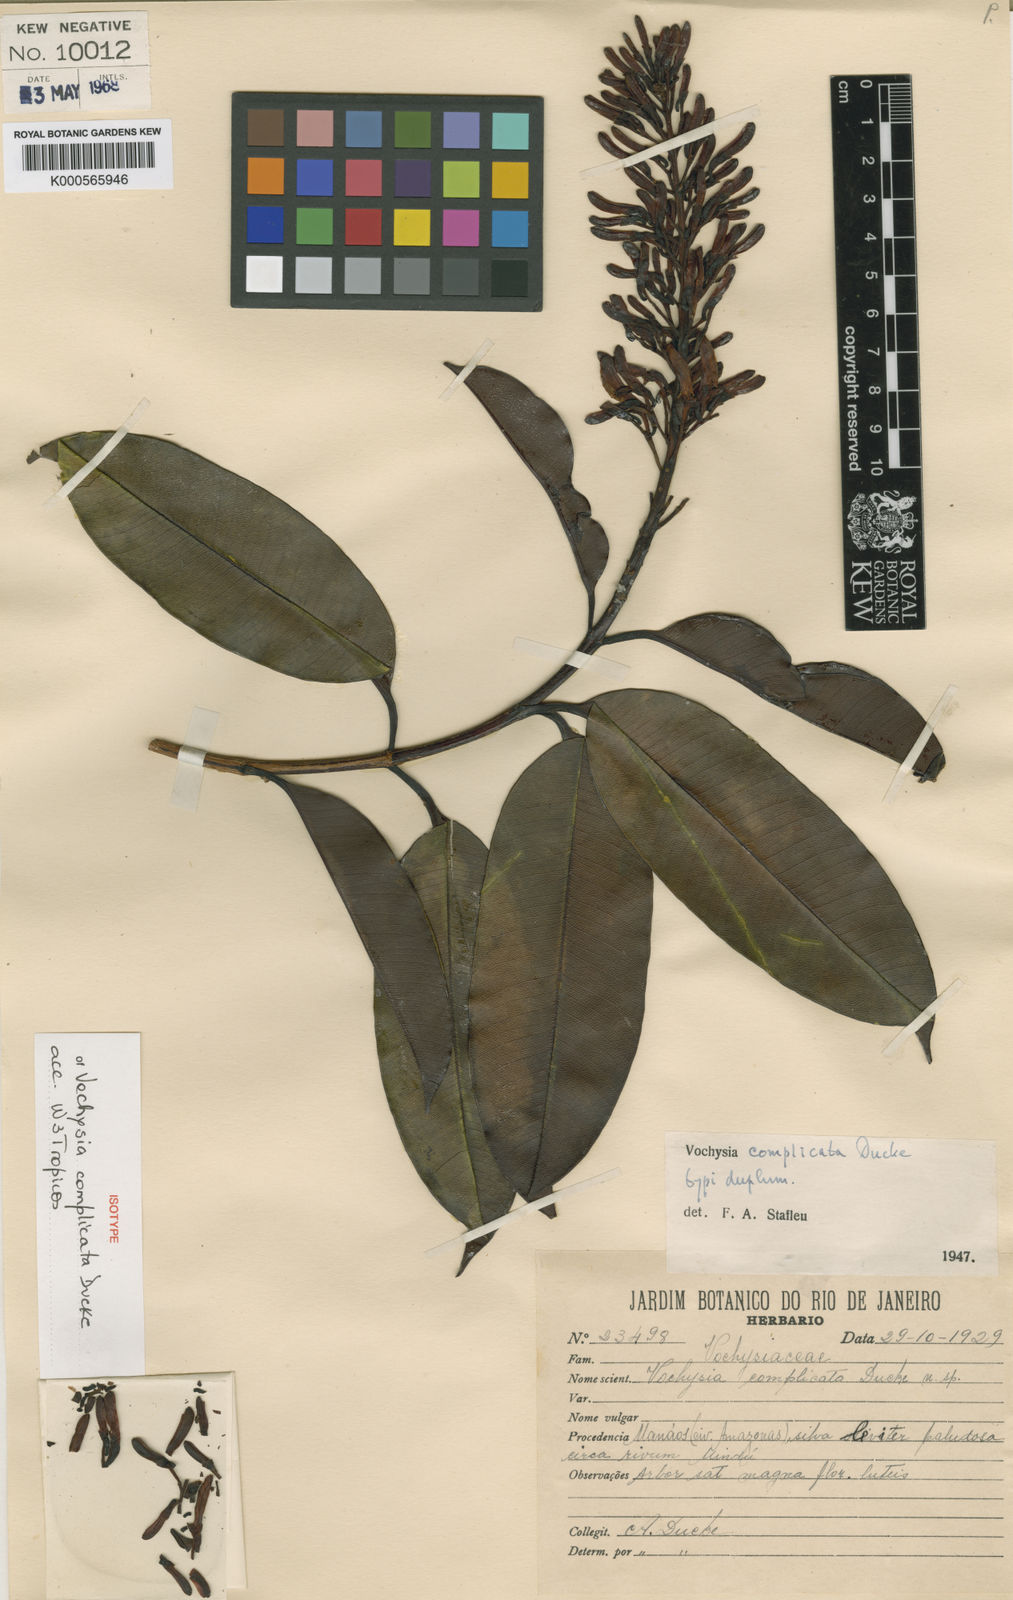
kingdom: Plantae
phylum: Tracheophyta
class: Magnoliopsida
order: Myrtales
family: Vochysiaceae
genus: Vochysia
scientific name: Vochysia complicata
